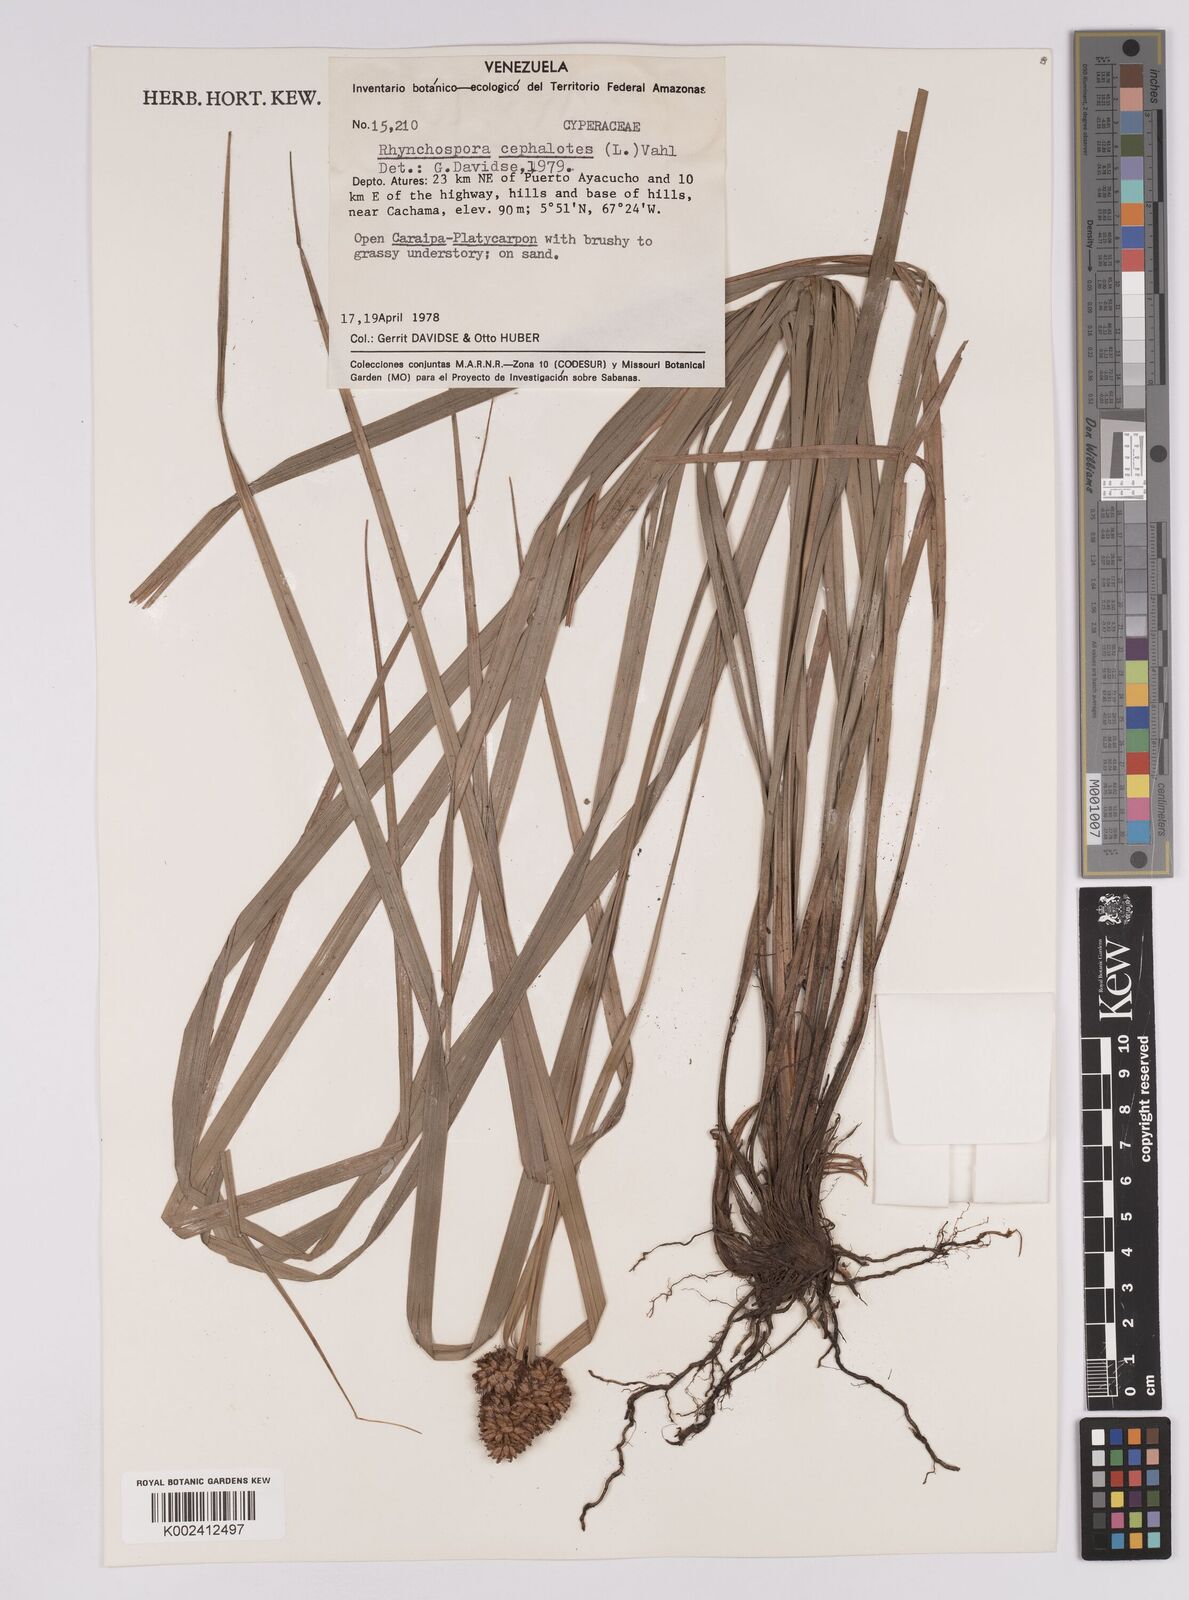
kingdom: Plantae
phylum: Tracheophyta
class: Liliopsida
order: Poales
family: Cyperaceae
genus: Rhynchospora
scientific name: Rhynchospora cephalotes
